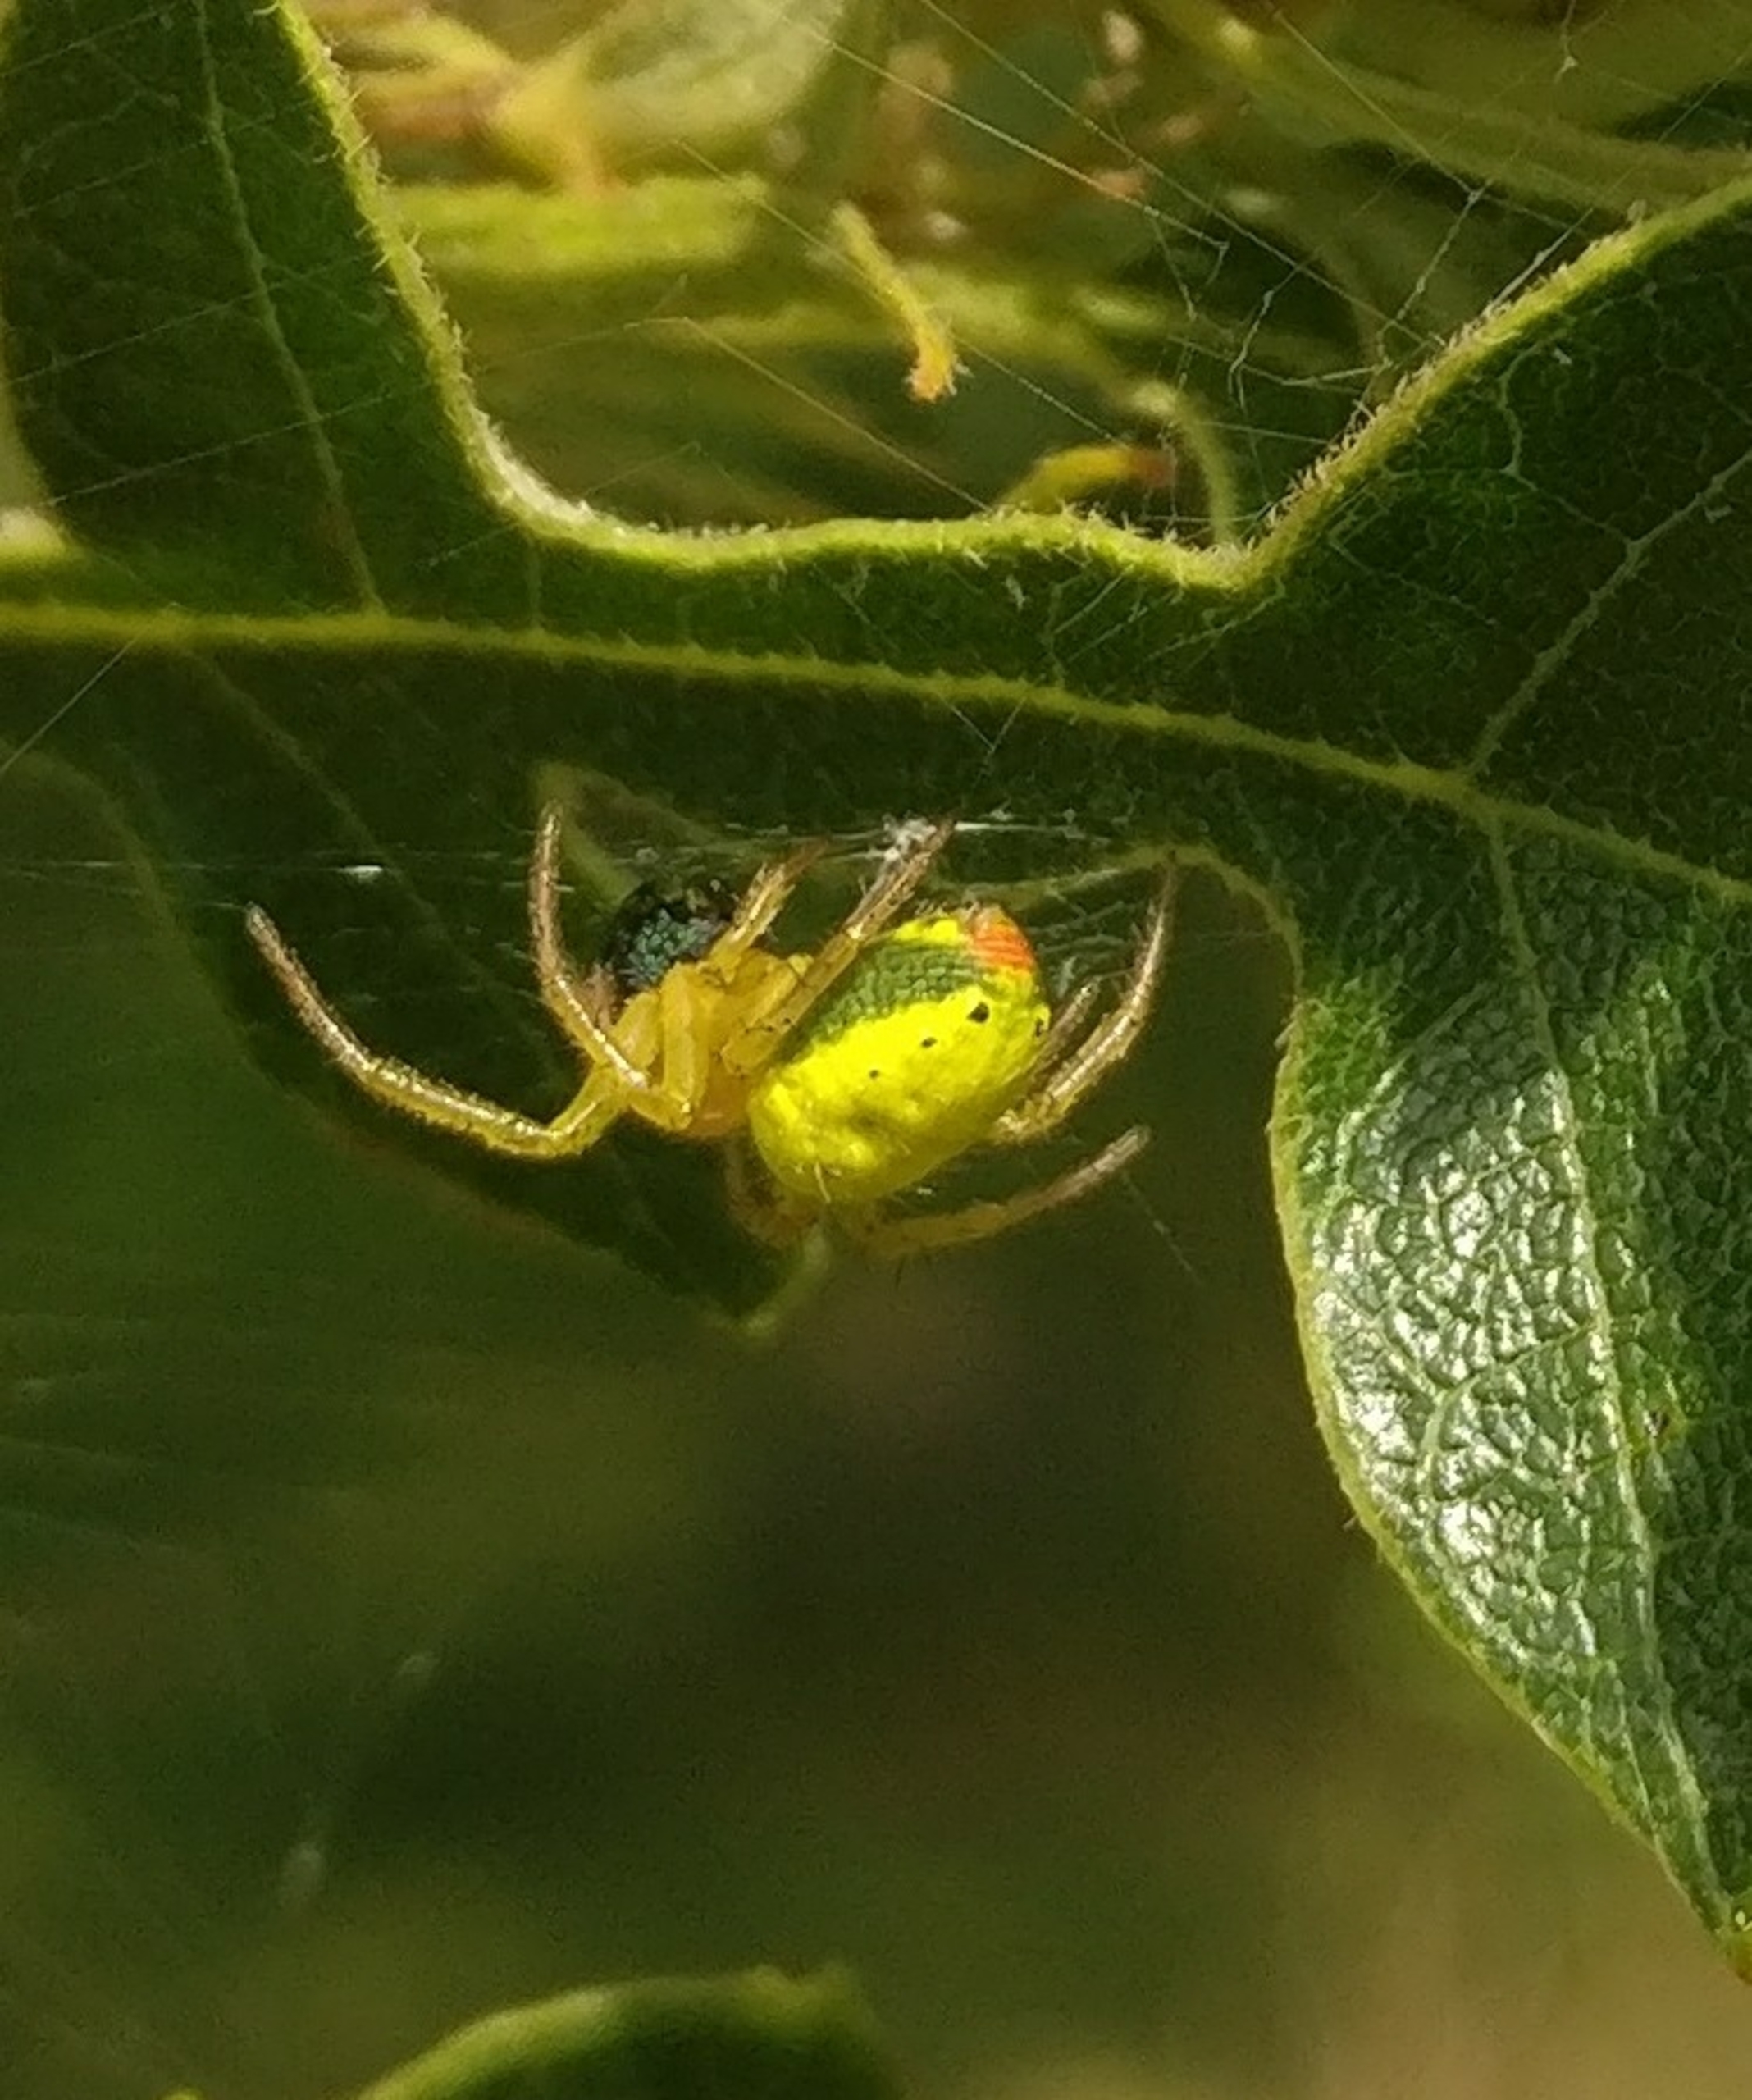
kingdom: Animalia
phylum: Arthropoda
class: Arachnida
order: Araneae
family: Araneidae
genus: Araniella
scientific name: Araniella
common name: Agurkeedderkopslægten
